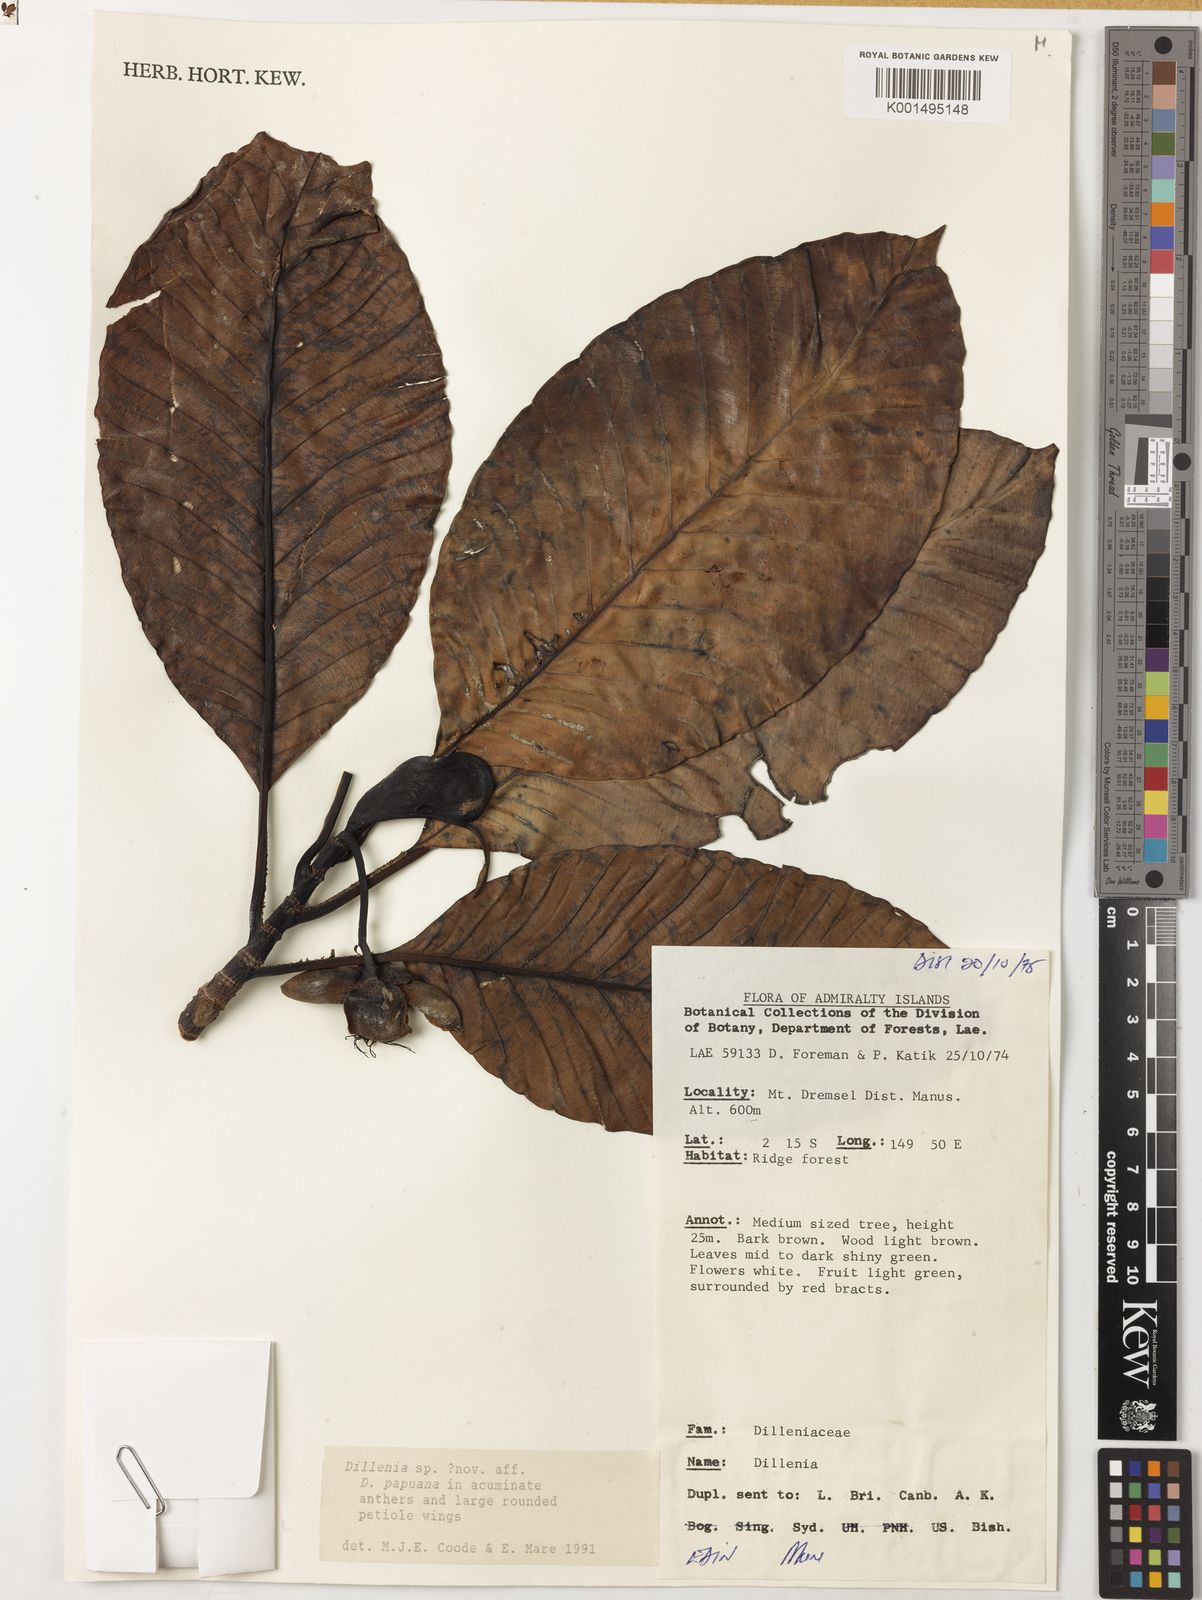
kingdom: Plantae
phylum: Tracheophyta
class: Magnoliopsida
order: Dilleniales
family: Dilleniaceae
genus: Dillenia
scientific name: Dillenia
